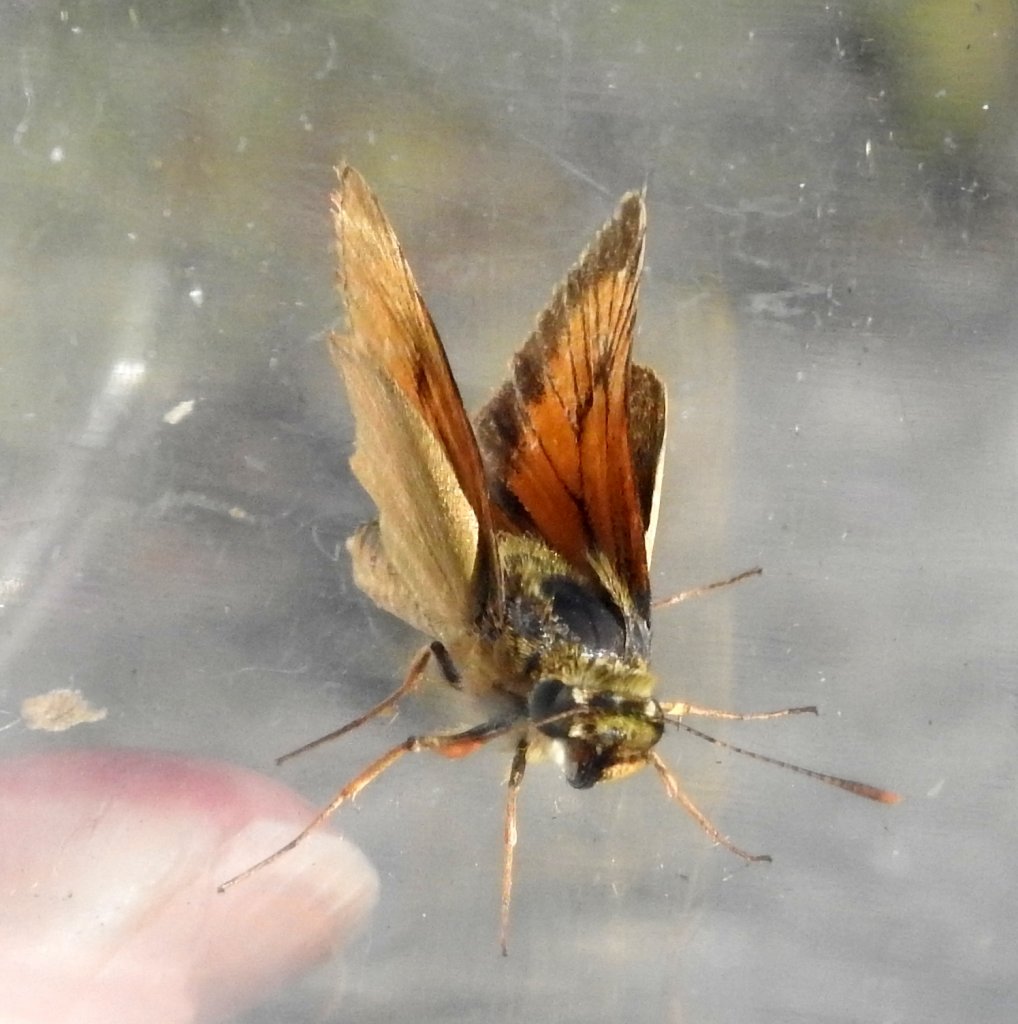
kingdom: Animalia
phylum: Arthropoda
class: Insecta
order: Lepidoptera
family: Hesperiidae
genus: Atrytone
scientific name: Atrytone delaware
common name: Delaware Skipper
